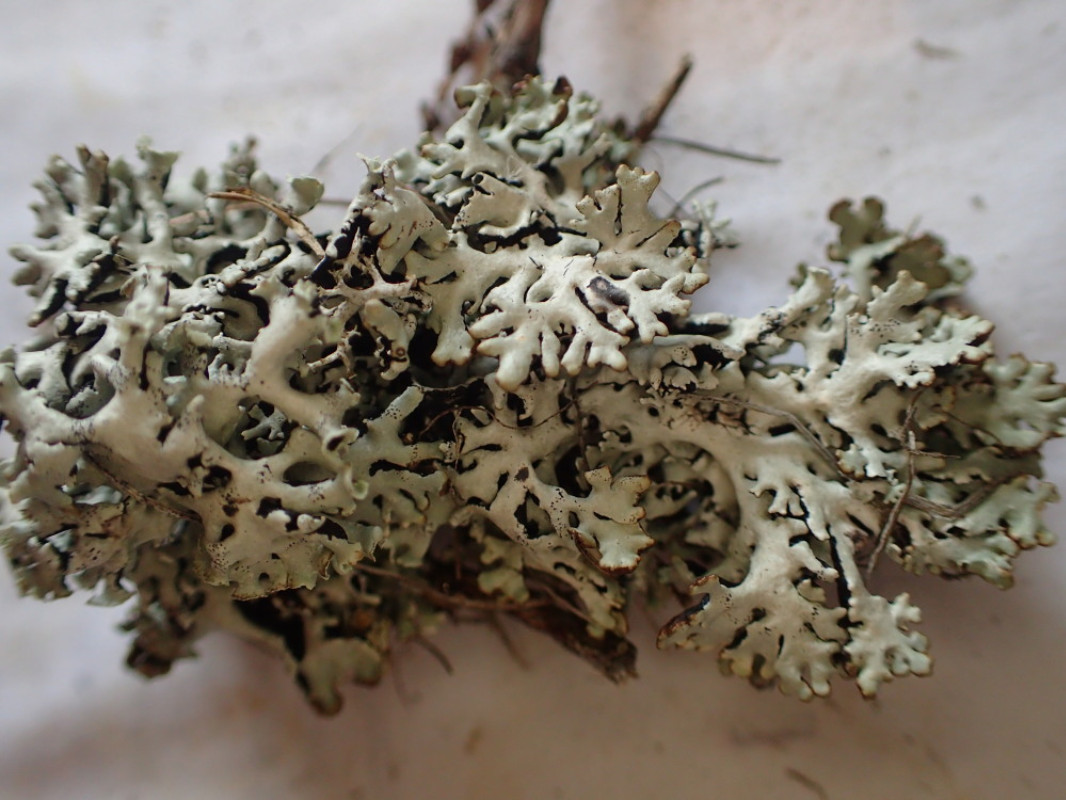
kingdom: Fungi
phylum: Ascomycota
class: Lecanoromycetes
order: Lecanorales
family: Parmeliaceae
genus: Hypogymnia
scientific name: Hypogymnia physodes
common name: almindelig kvistlav
